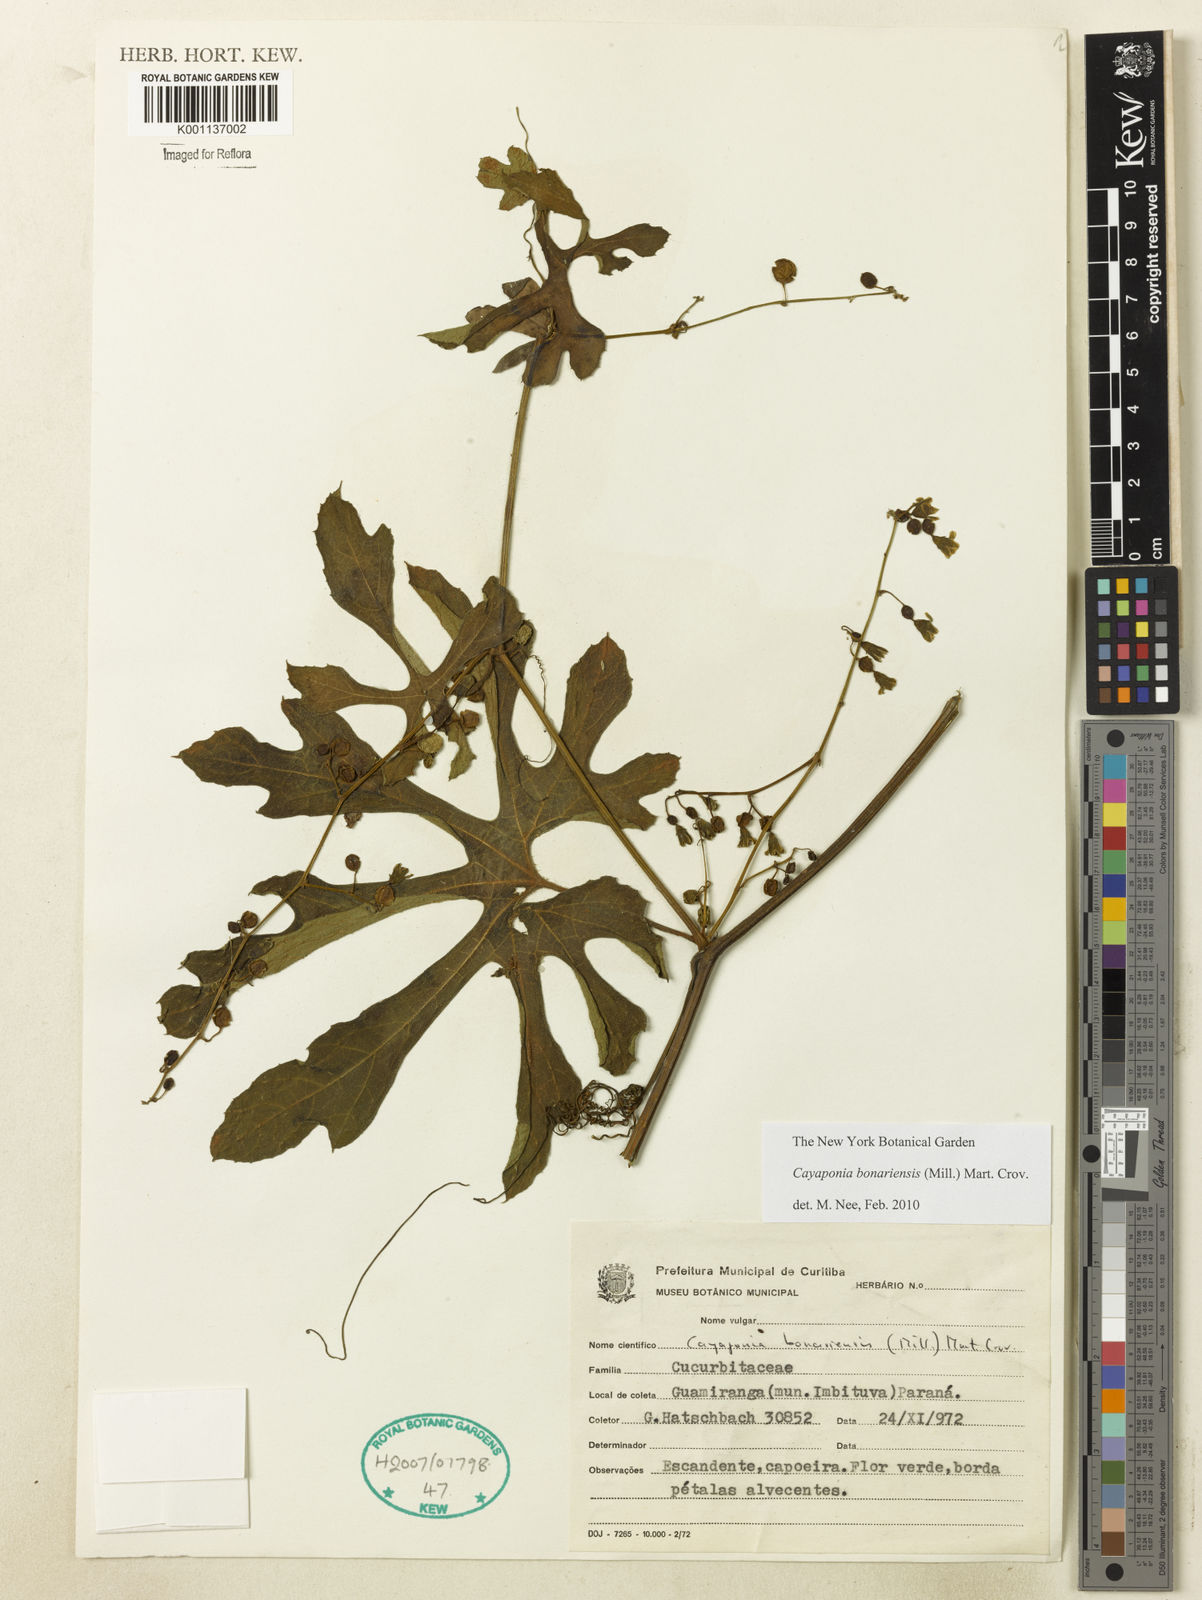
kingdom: Plantae
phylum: Tracheophyta
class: Magnoliopsida
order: Cucurbitales
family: Cucurbitaceae
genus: Cayaponia
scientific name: Cayaponia bonariensis
